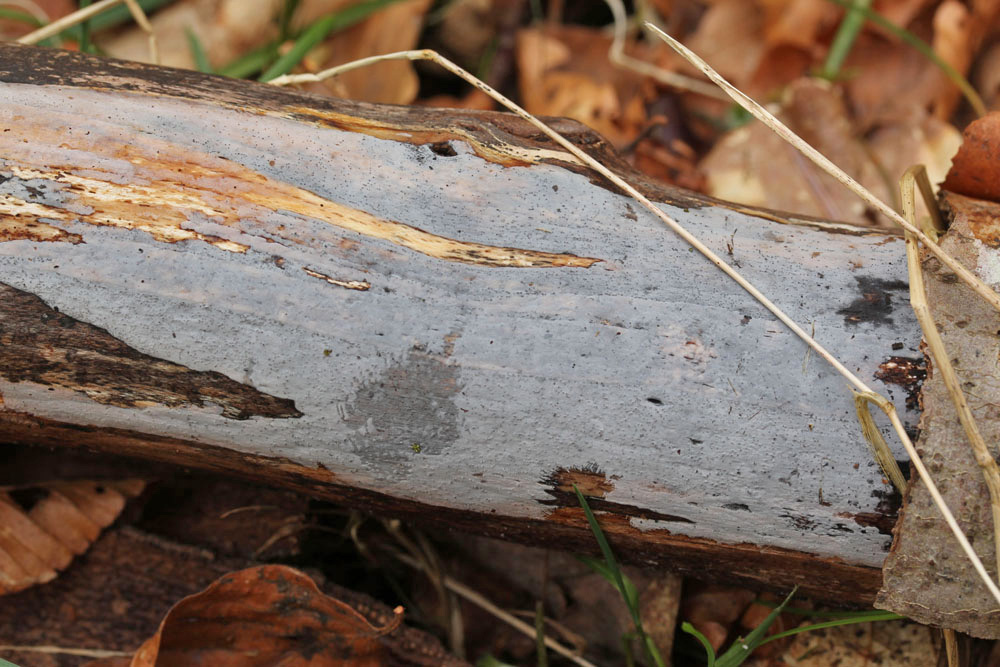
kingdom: Fungi
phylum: Basidiomycota
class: Tremellomycetes
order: Tremellales
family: Exidiaceae
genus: Exidiopsis
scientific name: Exidiopsis effusa
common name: smuk bævrehinde
